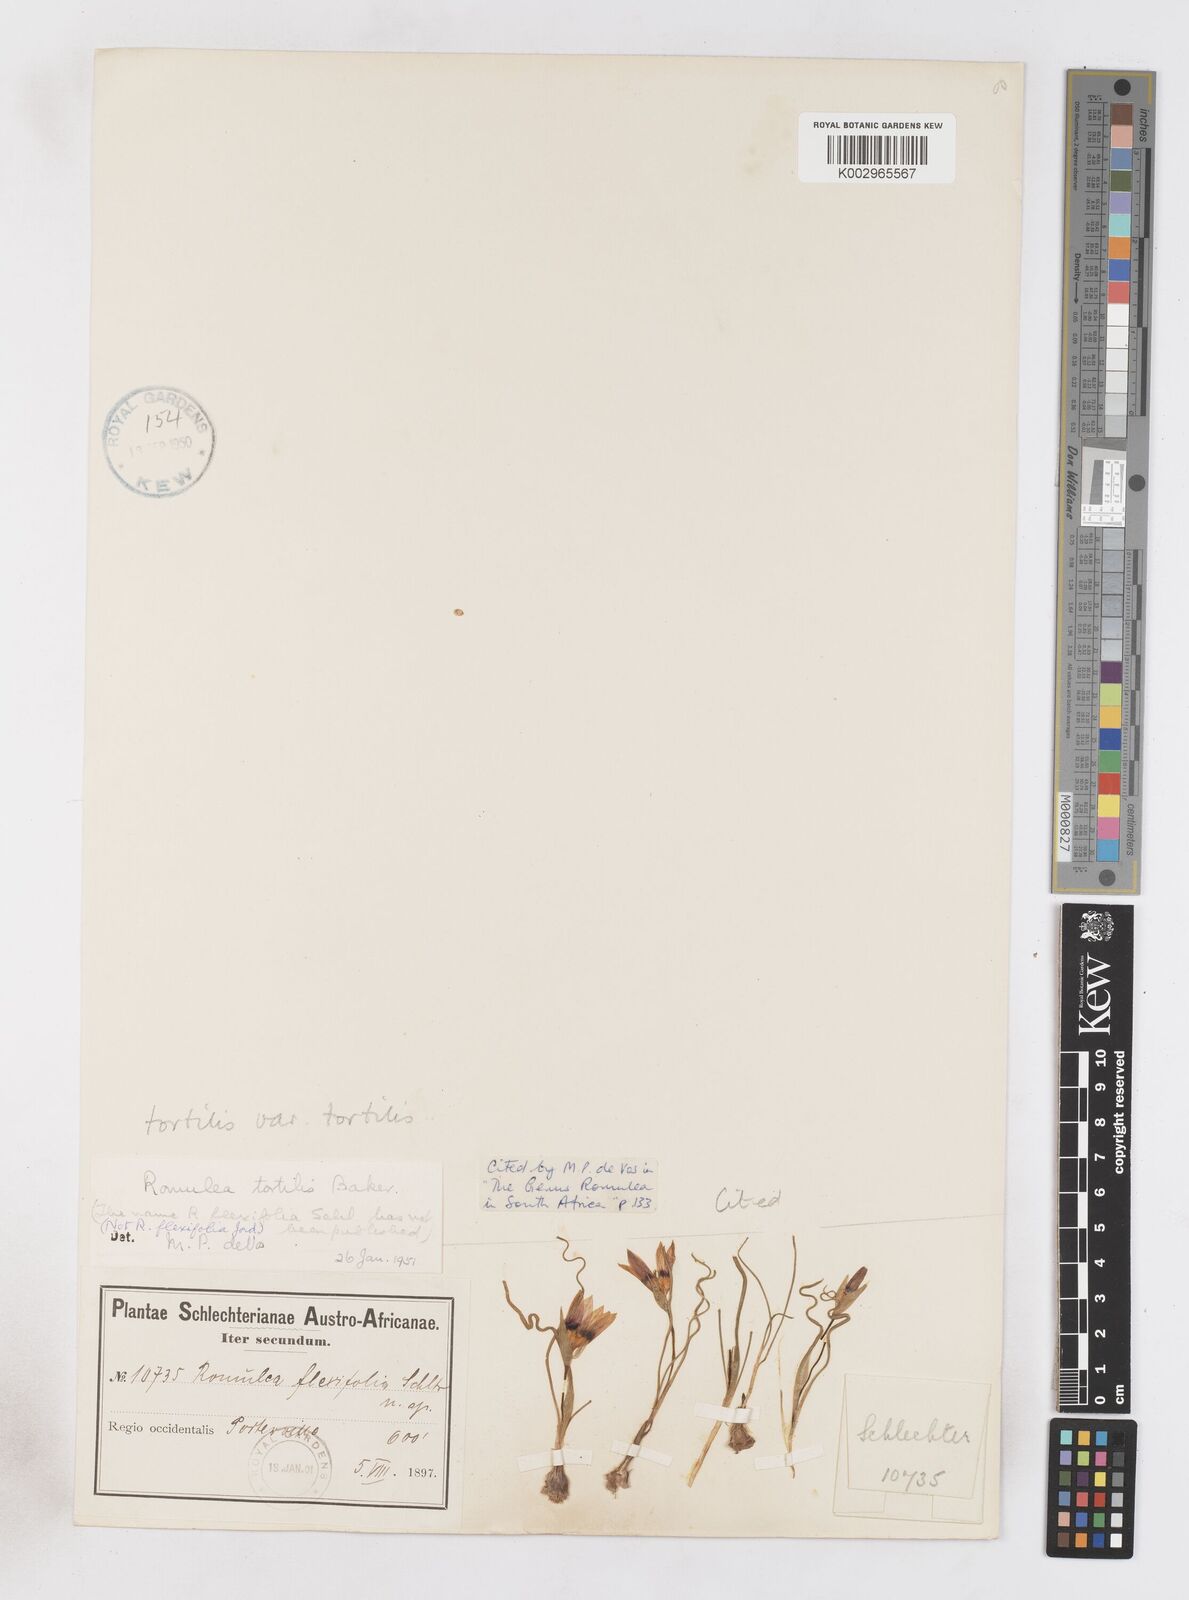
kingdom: Plantae
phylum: Tracheophyta
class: Liliopsida
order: Asparagales
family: Iridaceae
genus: Romulea
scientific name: Romulea tortilis
